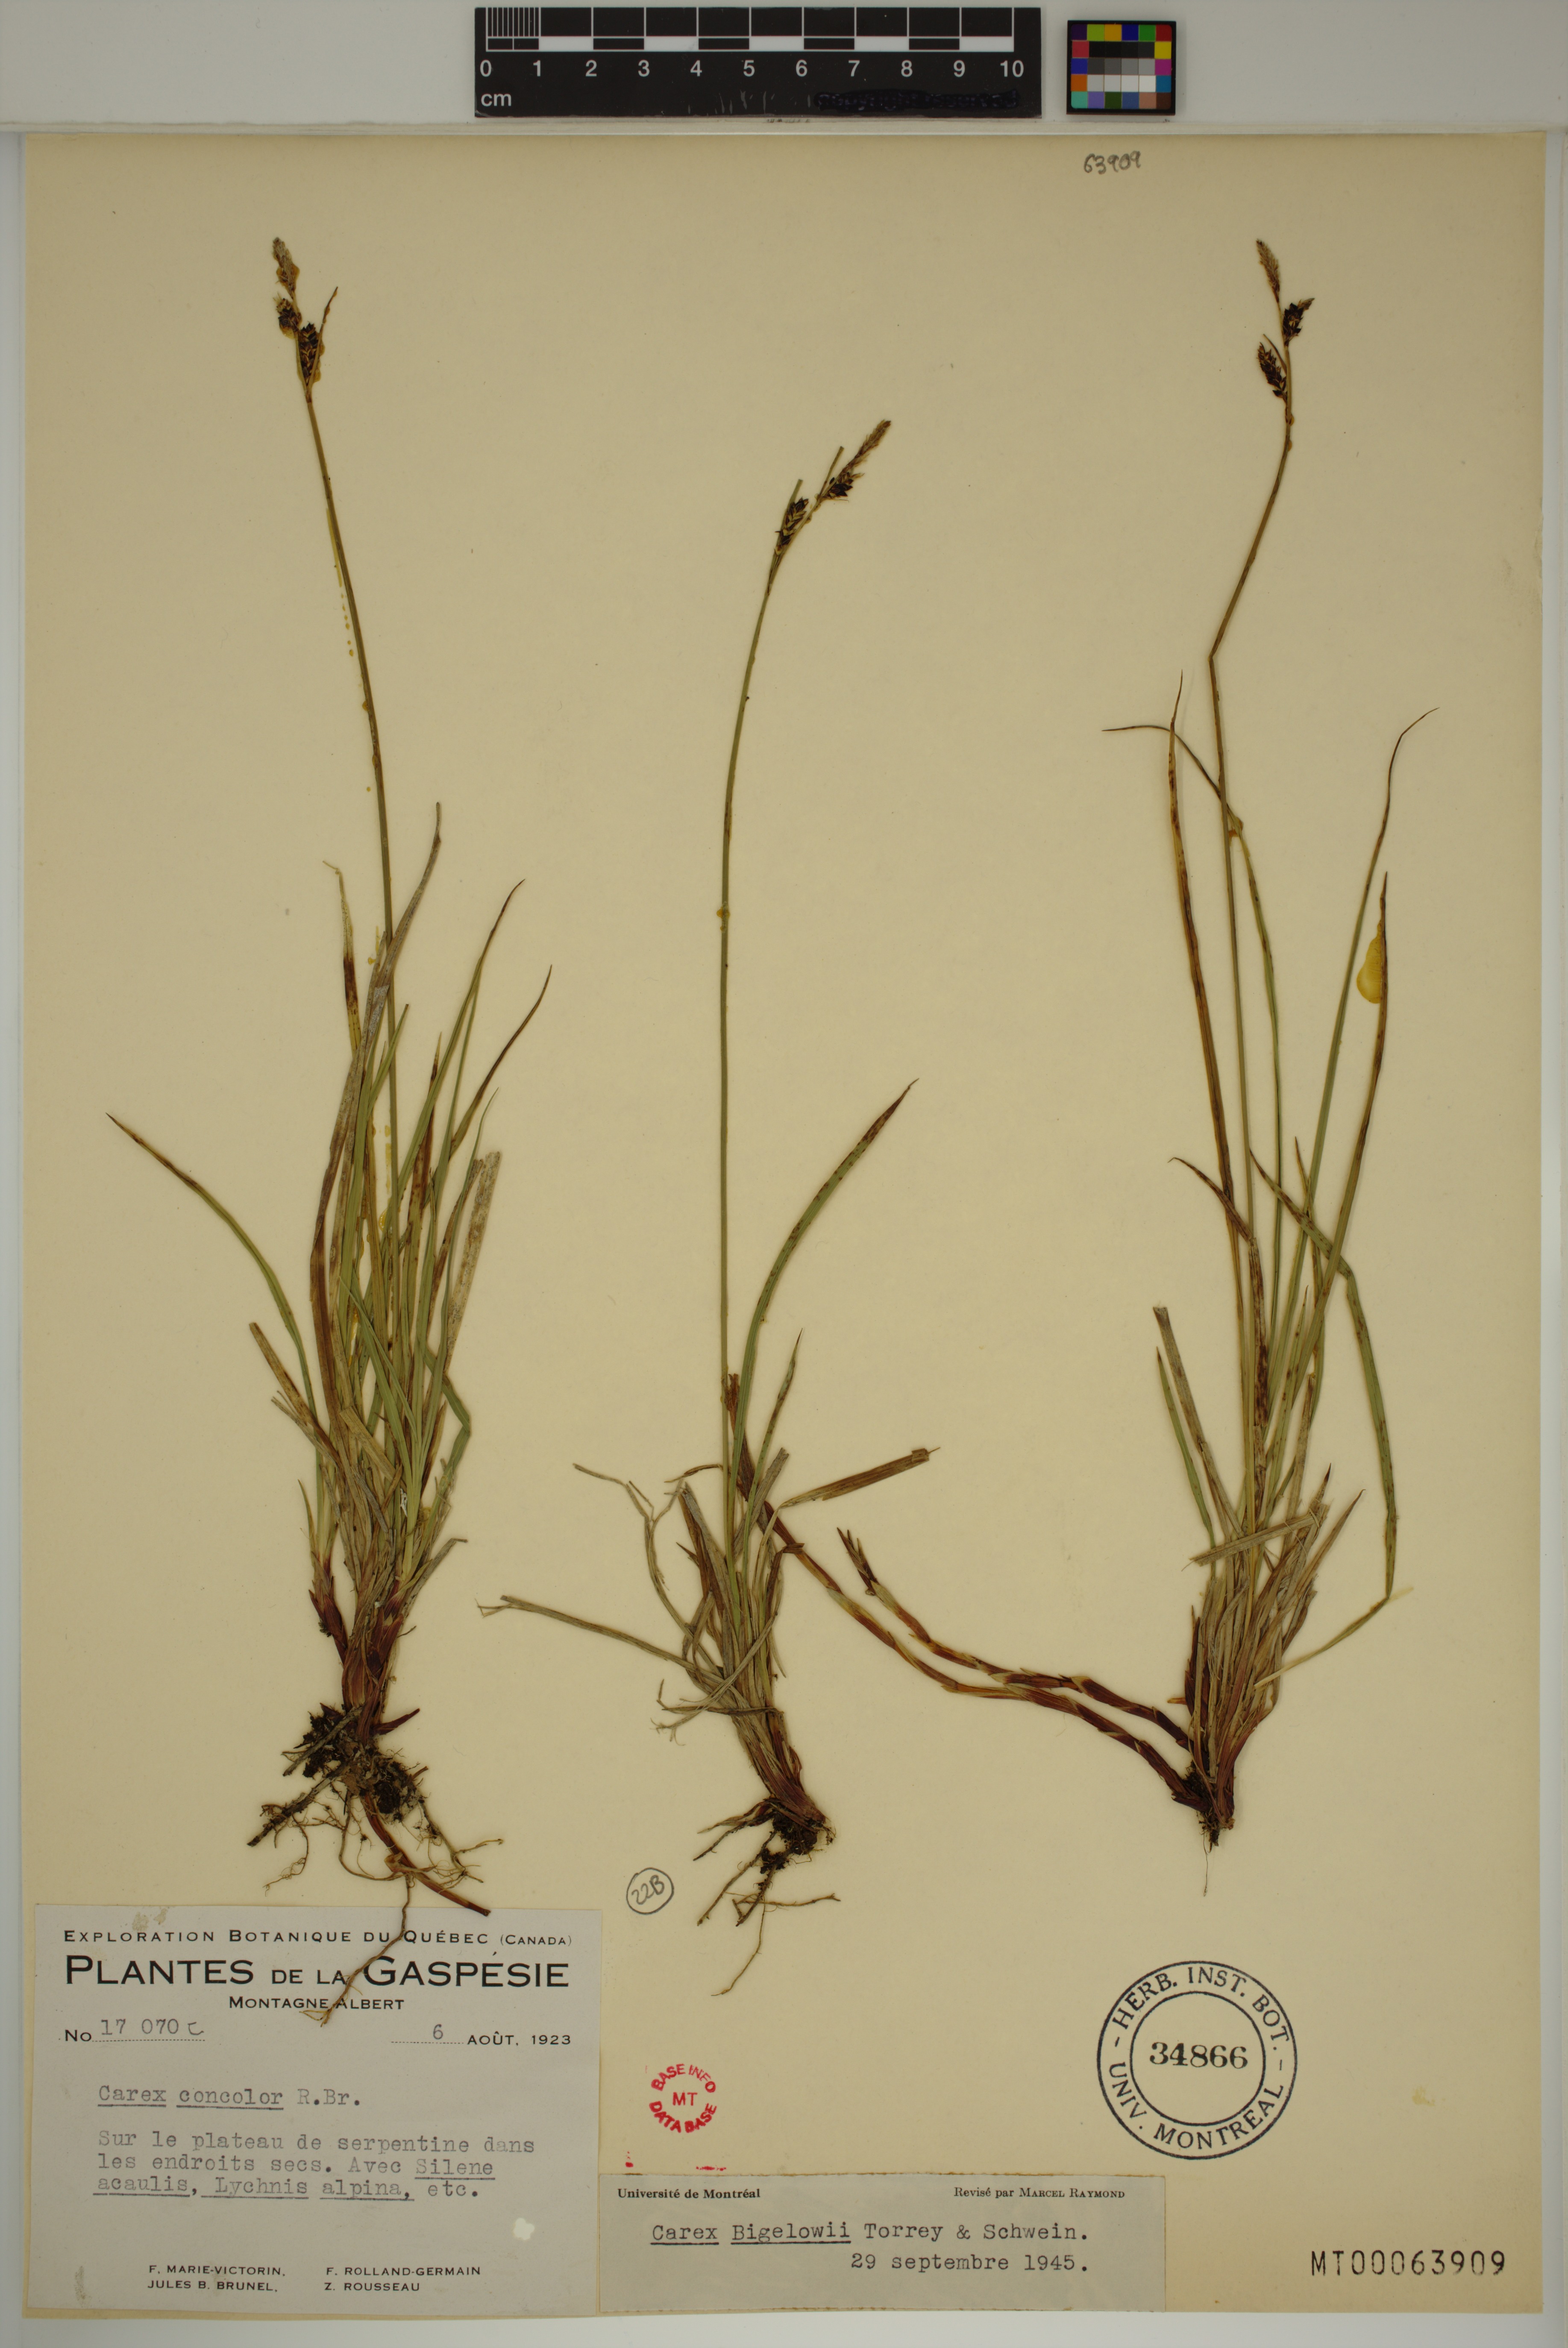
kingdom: Plantae
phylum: Tracheophyta
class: Liliopsida
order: Poales
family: Cyperaceae
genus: Carex
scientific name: Carex bigelowii
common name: Stiff sedge
